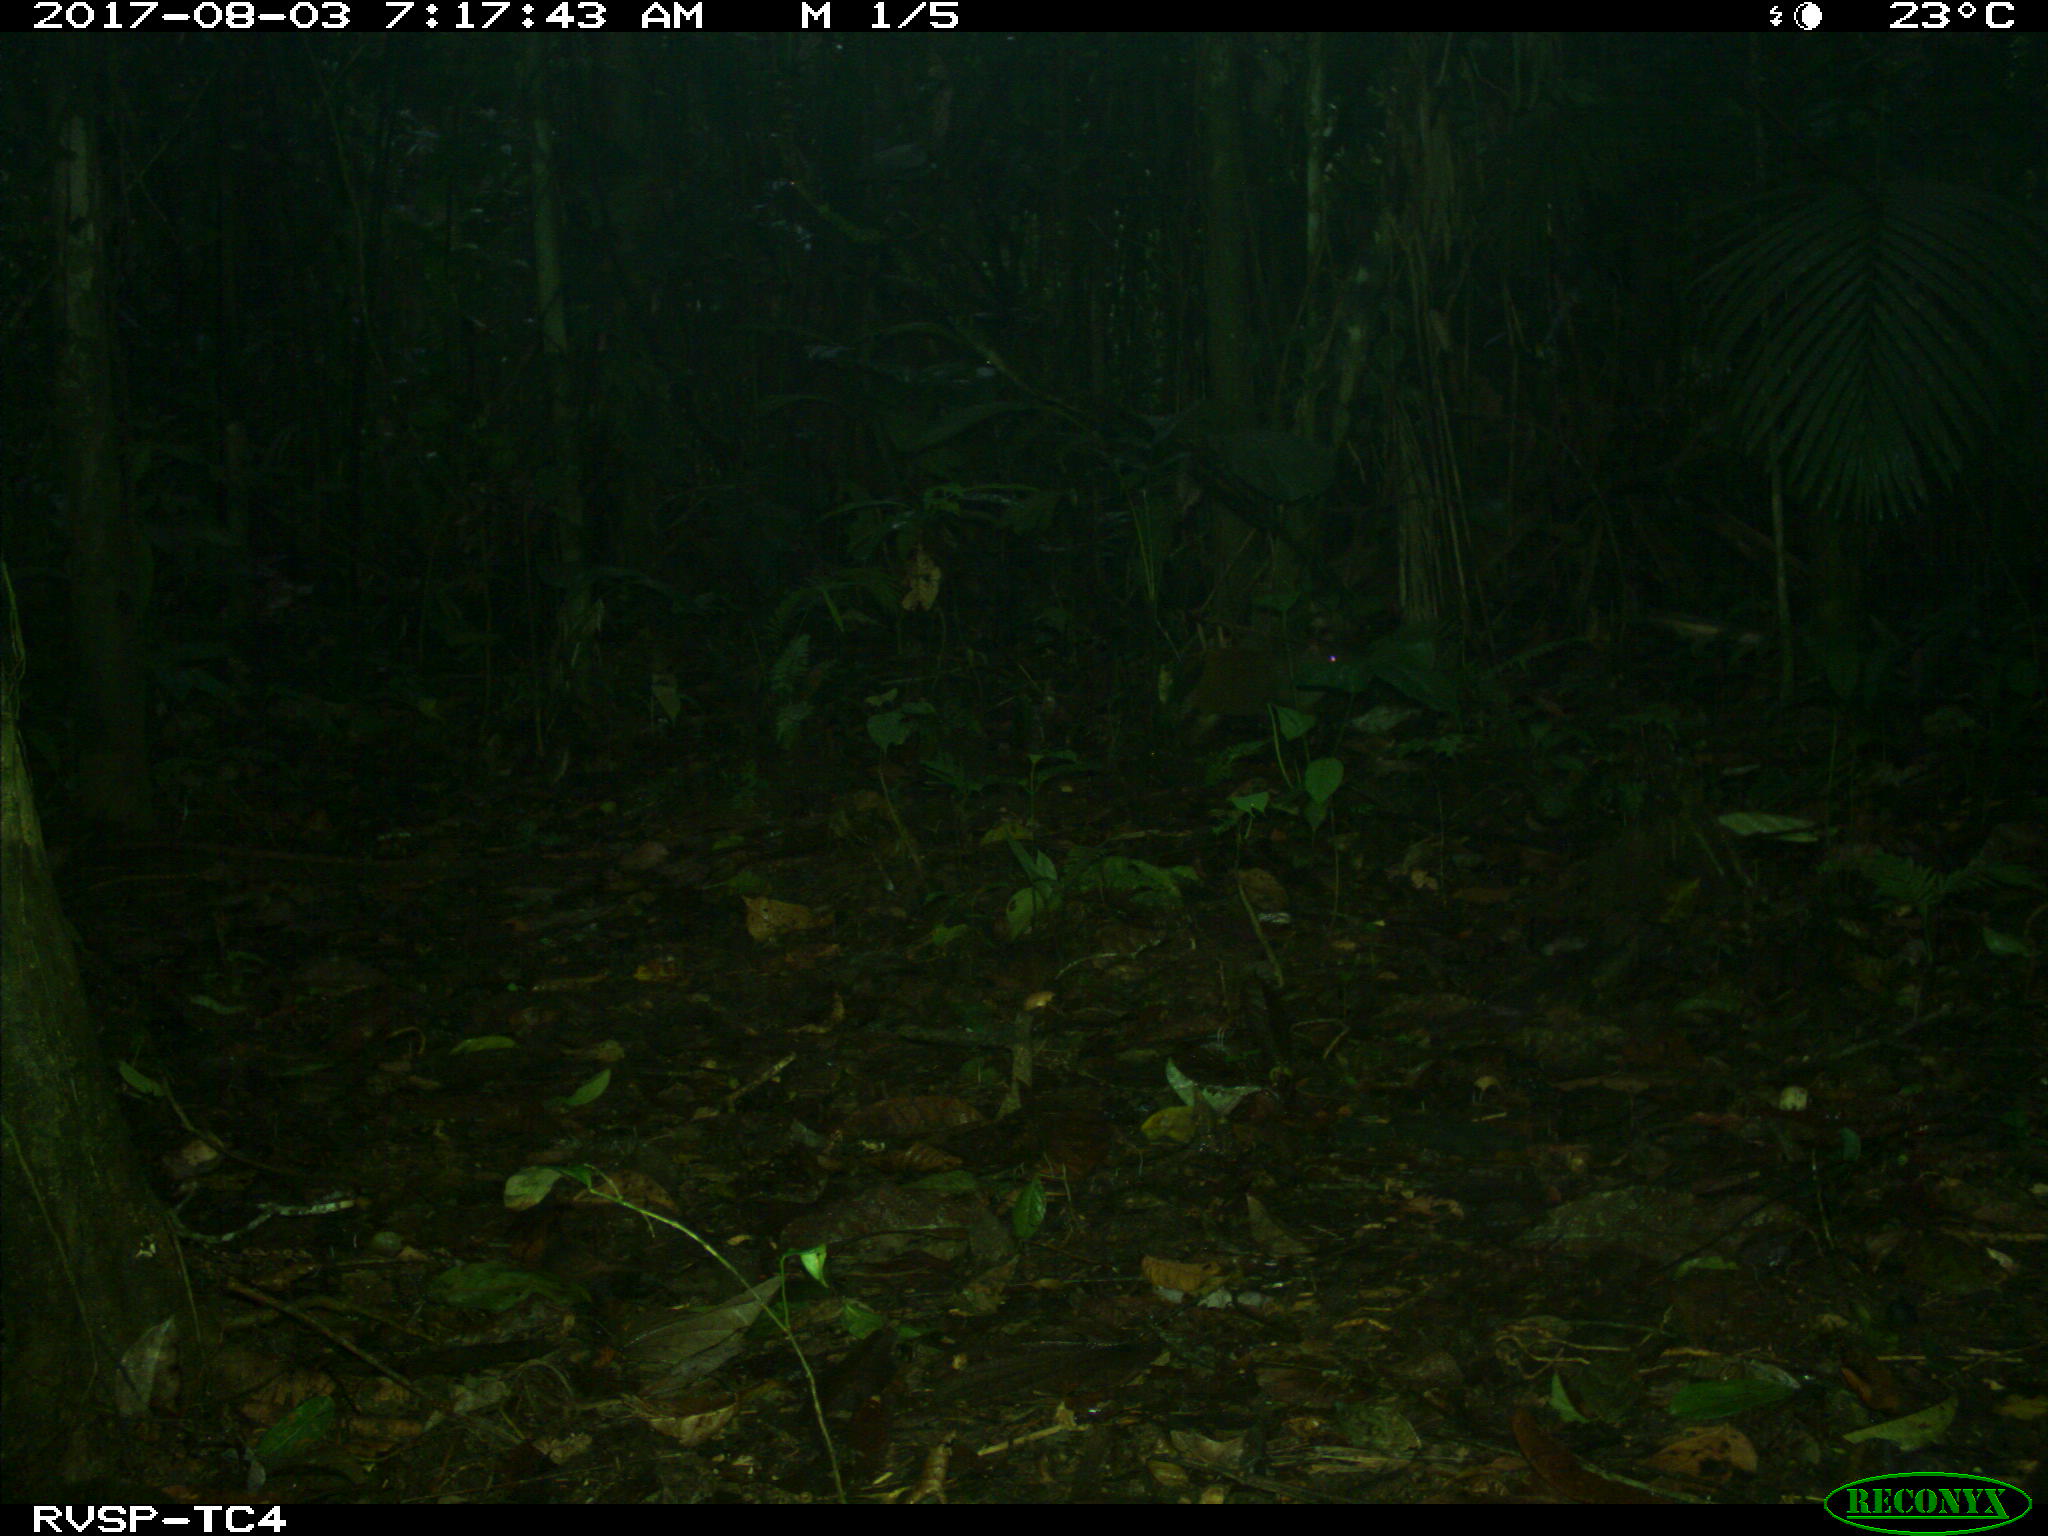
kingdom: Animalia
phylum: Chordata
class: Mammalia
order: Rodentia
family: Dasyproctidae
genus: Dasyprocta
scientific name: Dasyprocta punctata
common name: Central american agouti
